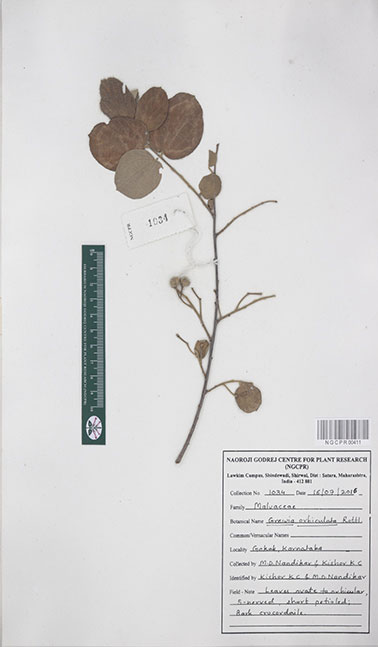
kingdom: Plantae
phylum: Tracheophyta
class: Magnoliopsida
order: Malvales
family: Malvaceae
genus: Grewia
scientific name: Grewia orbiculata
